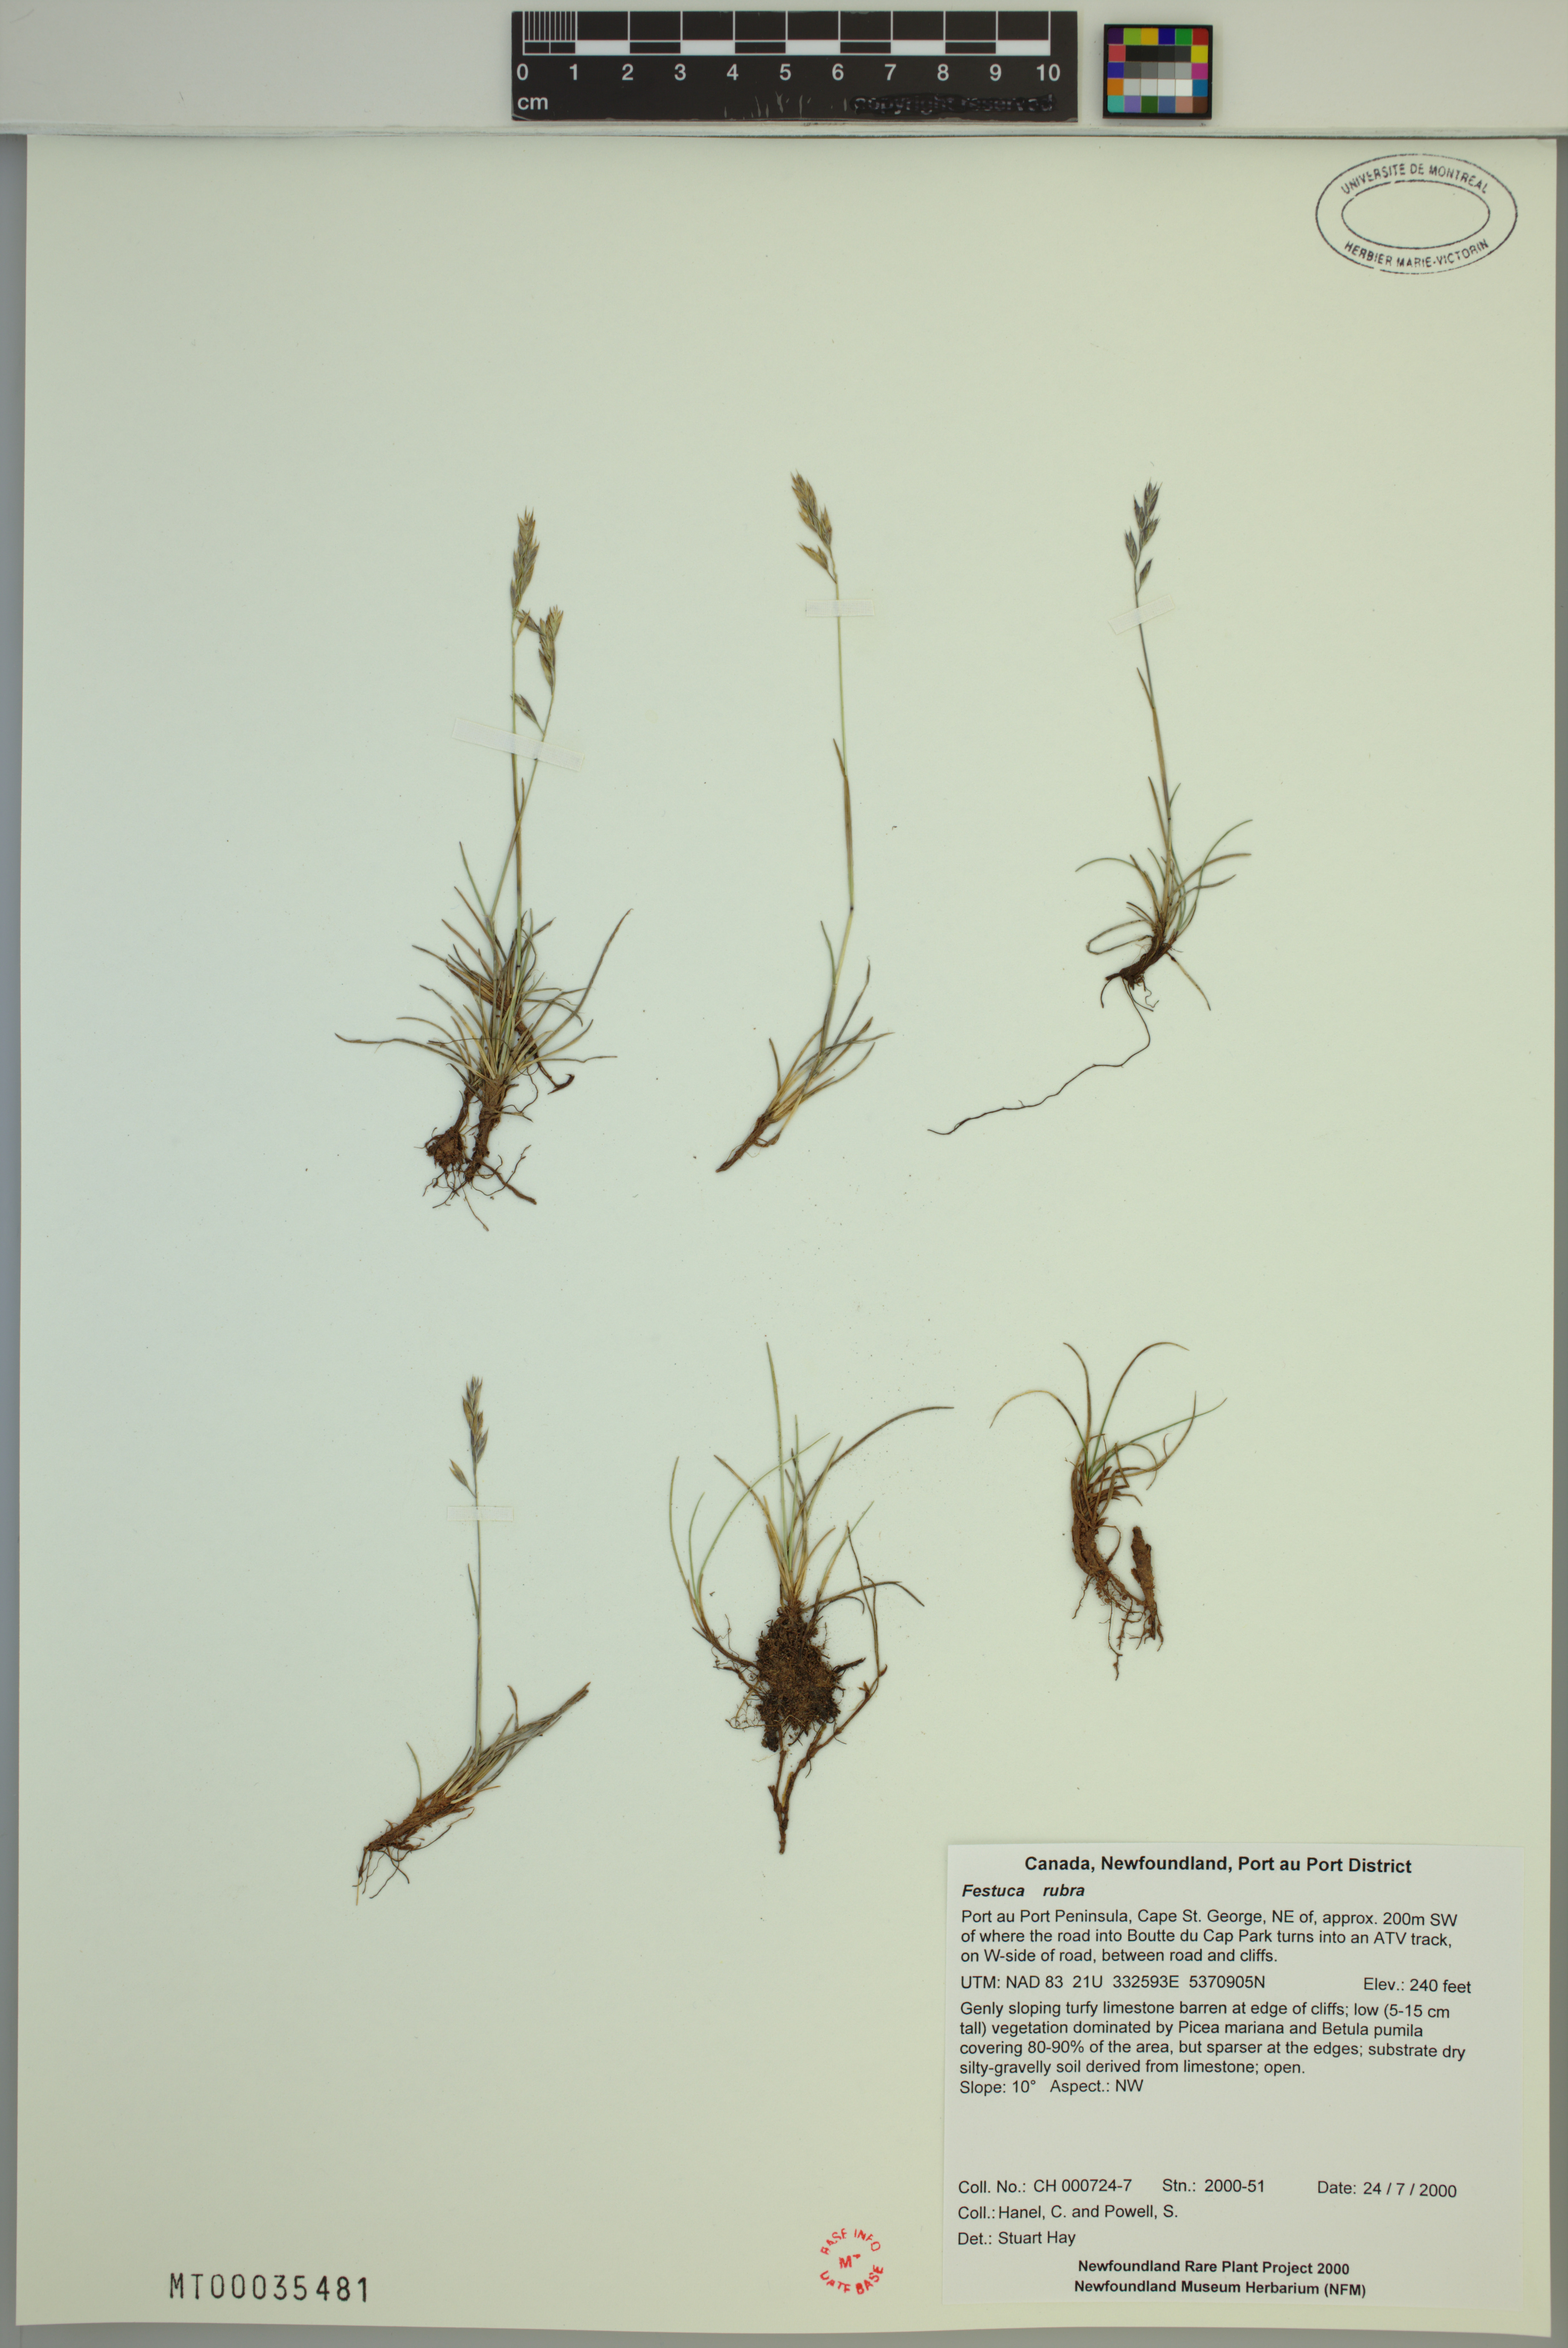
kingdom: Plantae
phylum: Tracheophyta
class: Liliopsida
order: Poales
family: Poaceae
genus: Festuca
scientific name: Festuca rubra
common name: Red fescue
